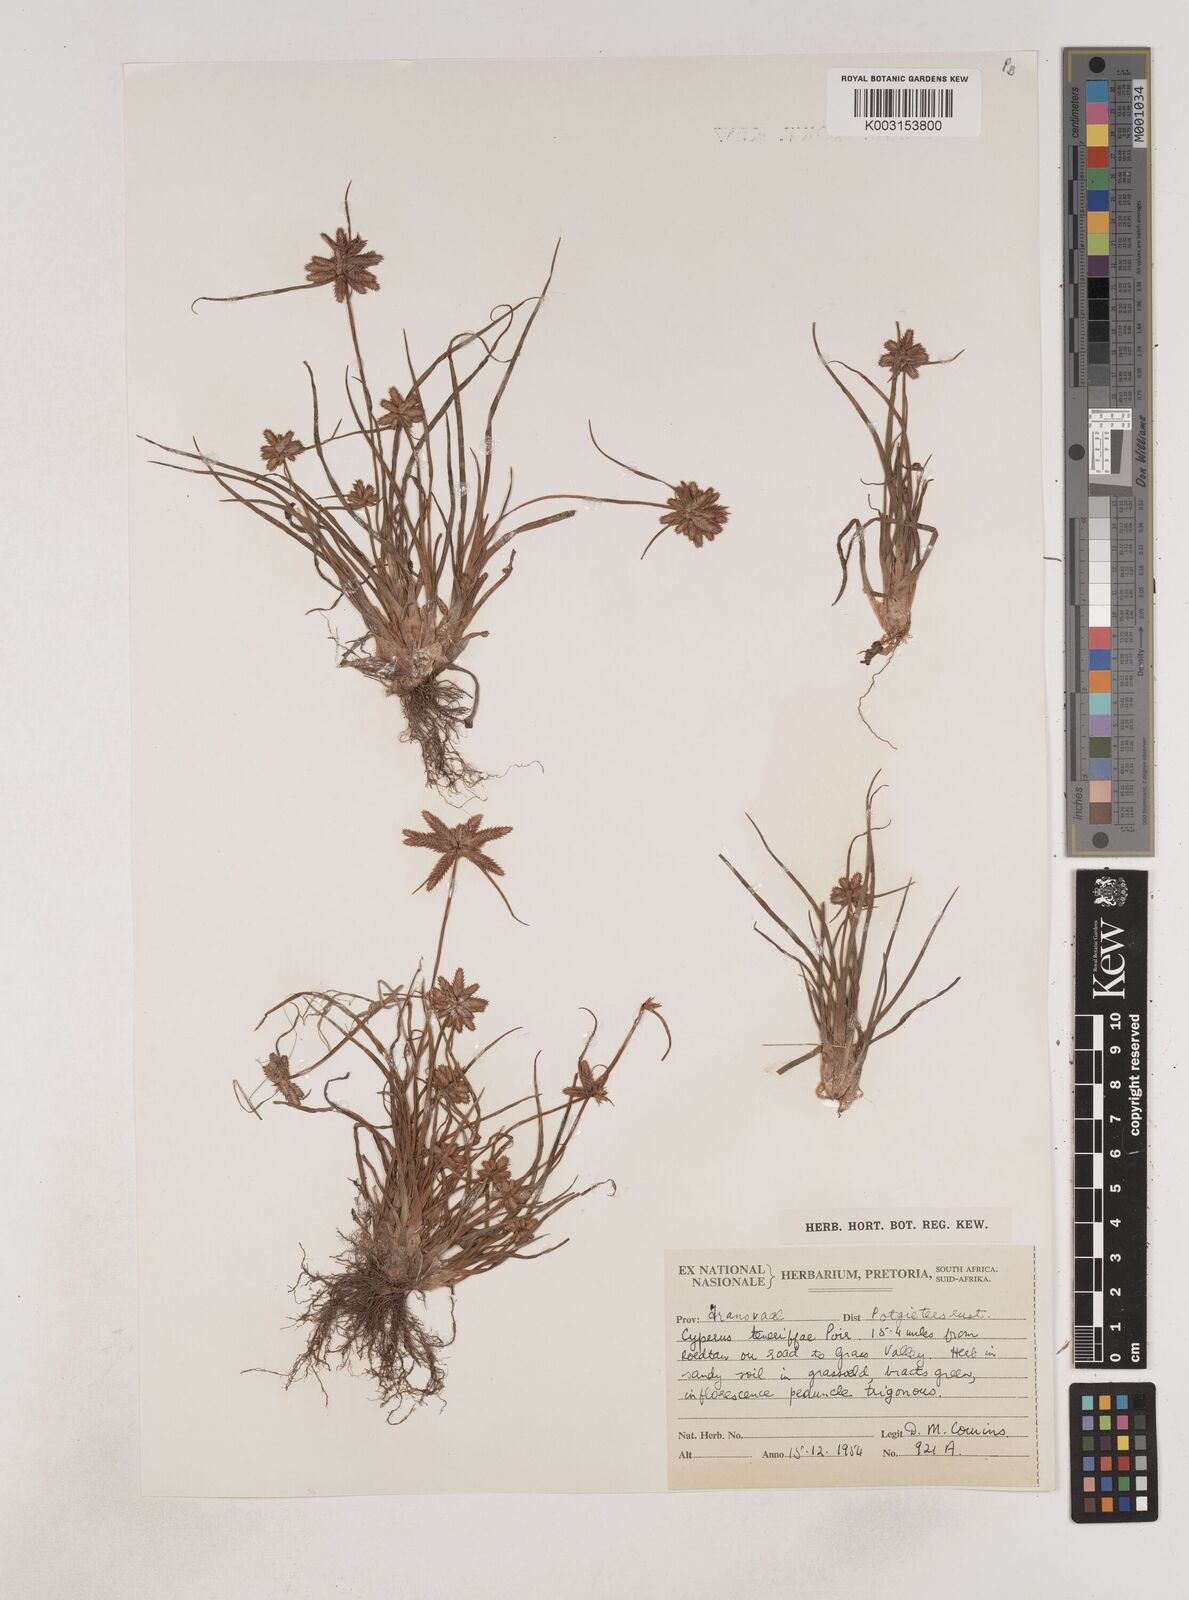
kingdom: Plantae
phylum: Tracheophyta
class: Liliopsida
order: Poales
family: Cyperaceae
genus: Cyperus
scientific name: Cyperus rubicundus
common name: Coco-grass
